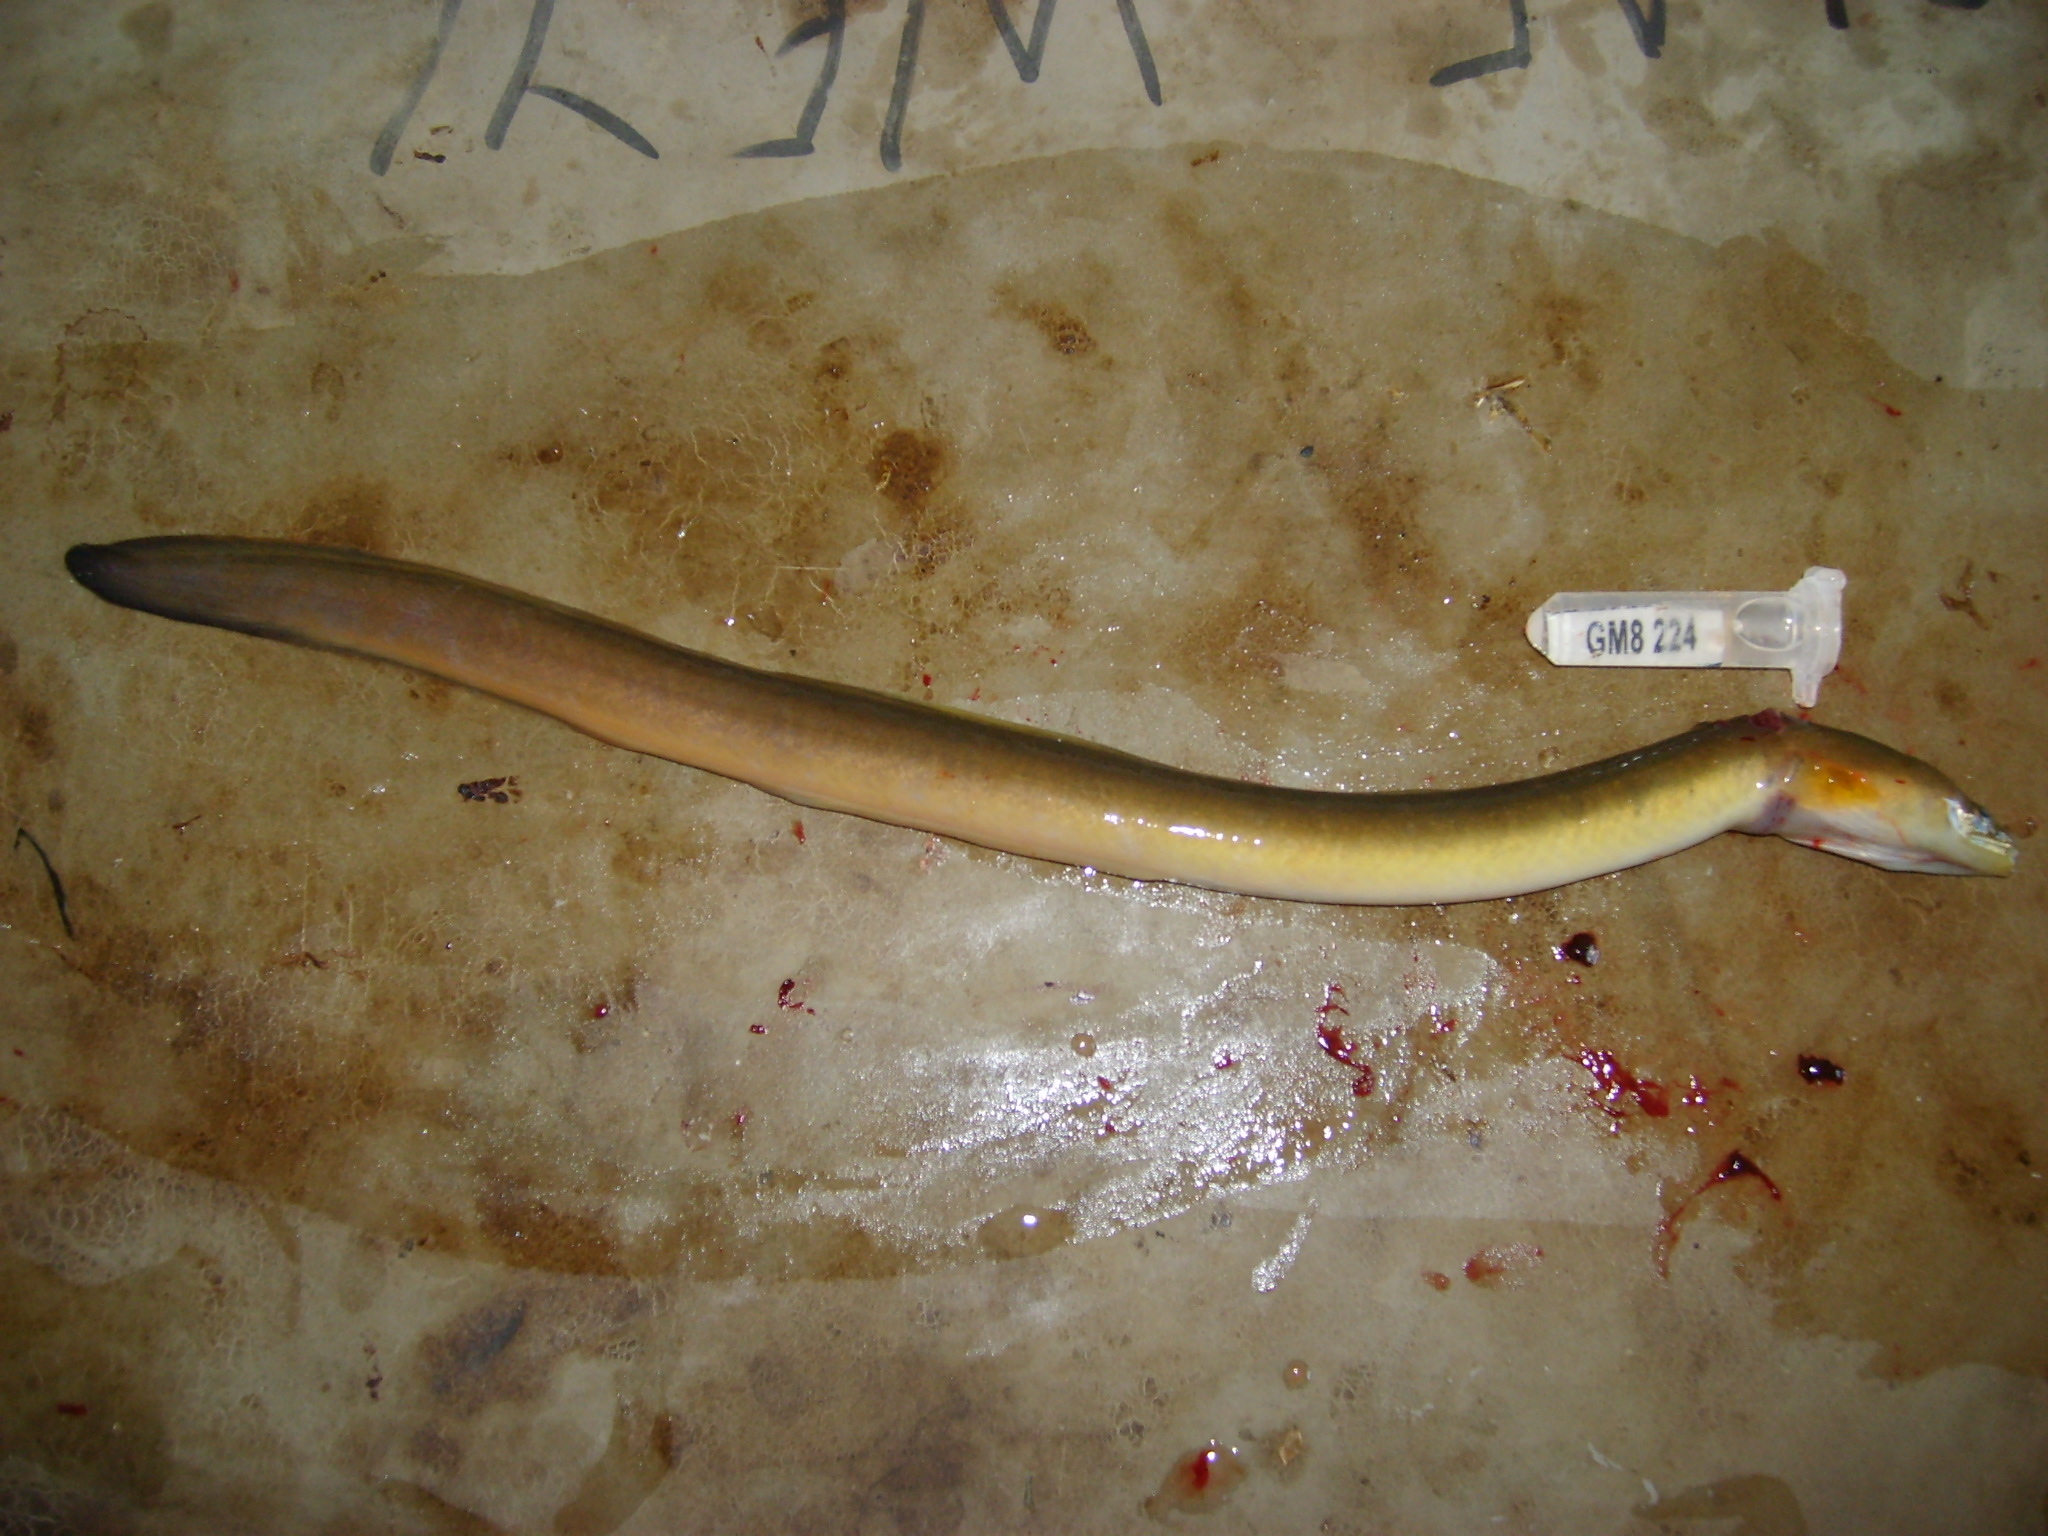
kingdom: Animalia
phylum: Chordata
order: Anguilliformes
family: Anguillidae
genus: Anguilla
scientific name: Anguilla mossambica
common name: African longfin eel
